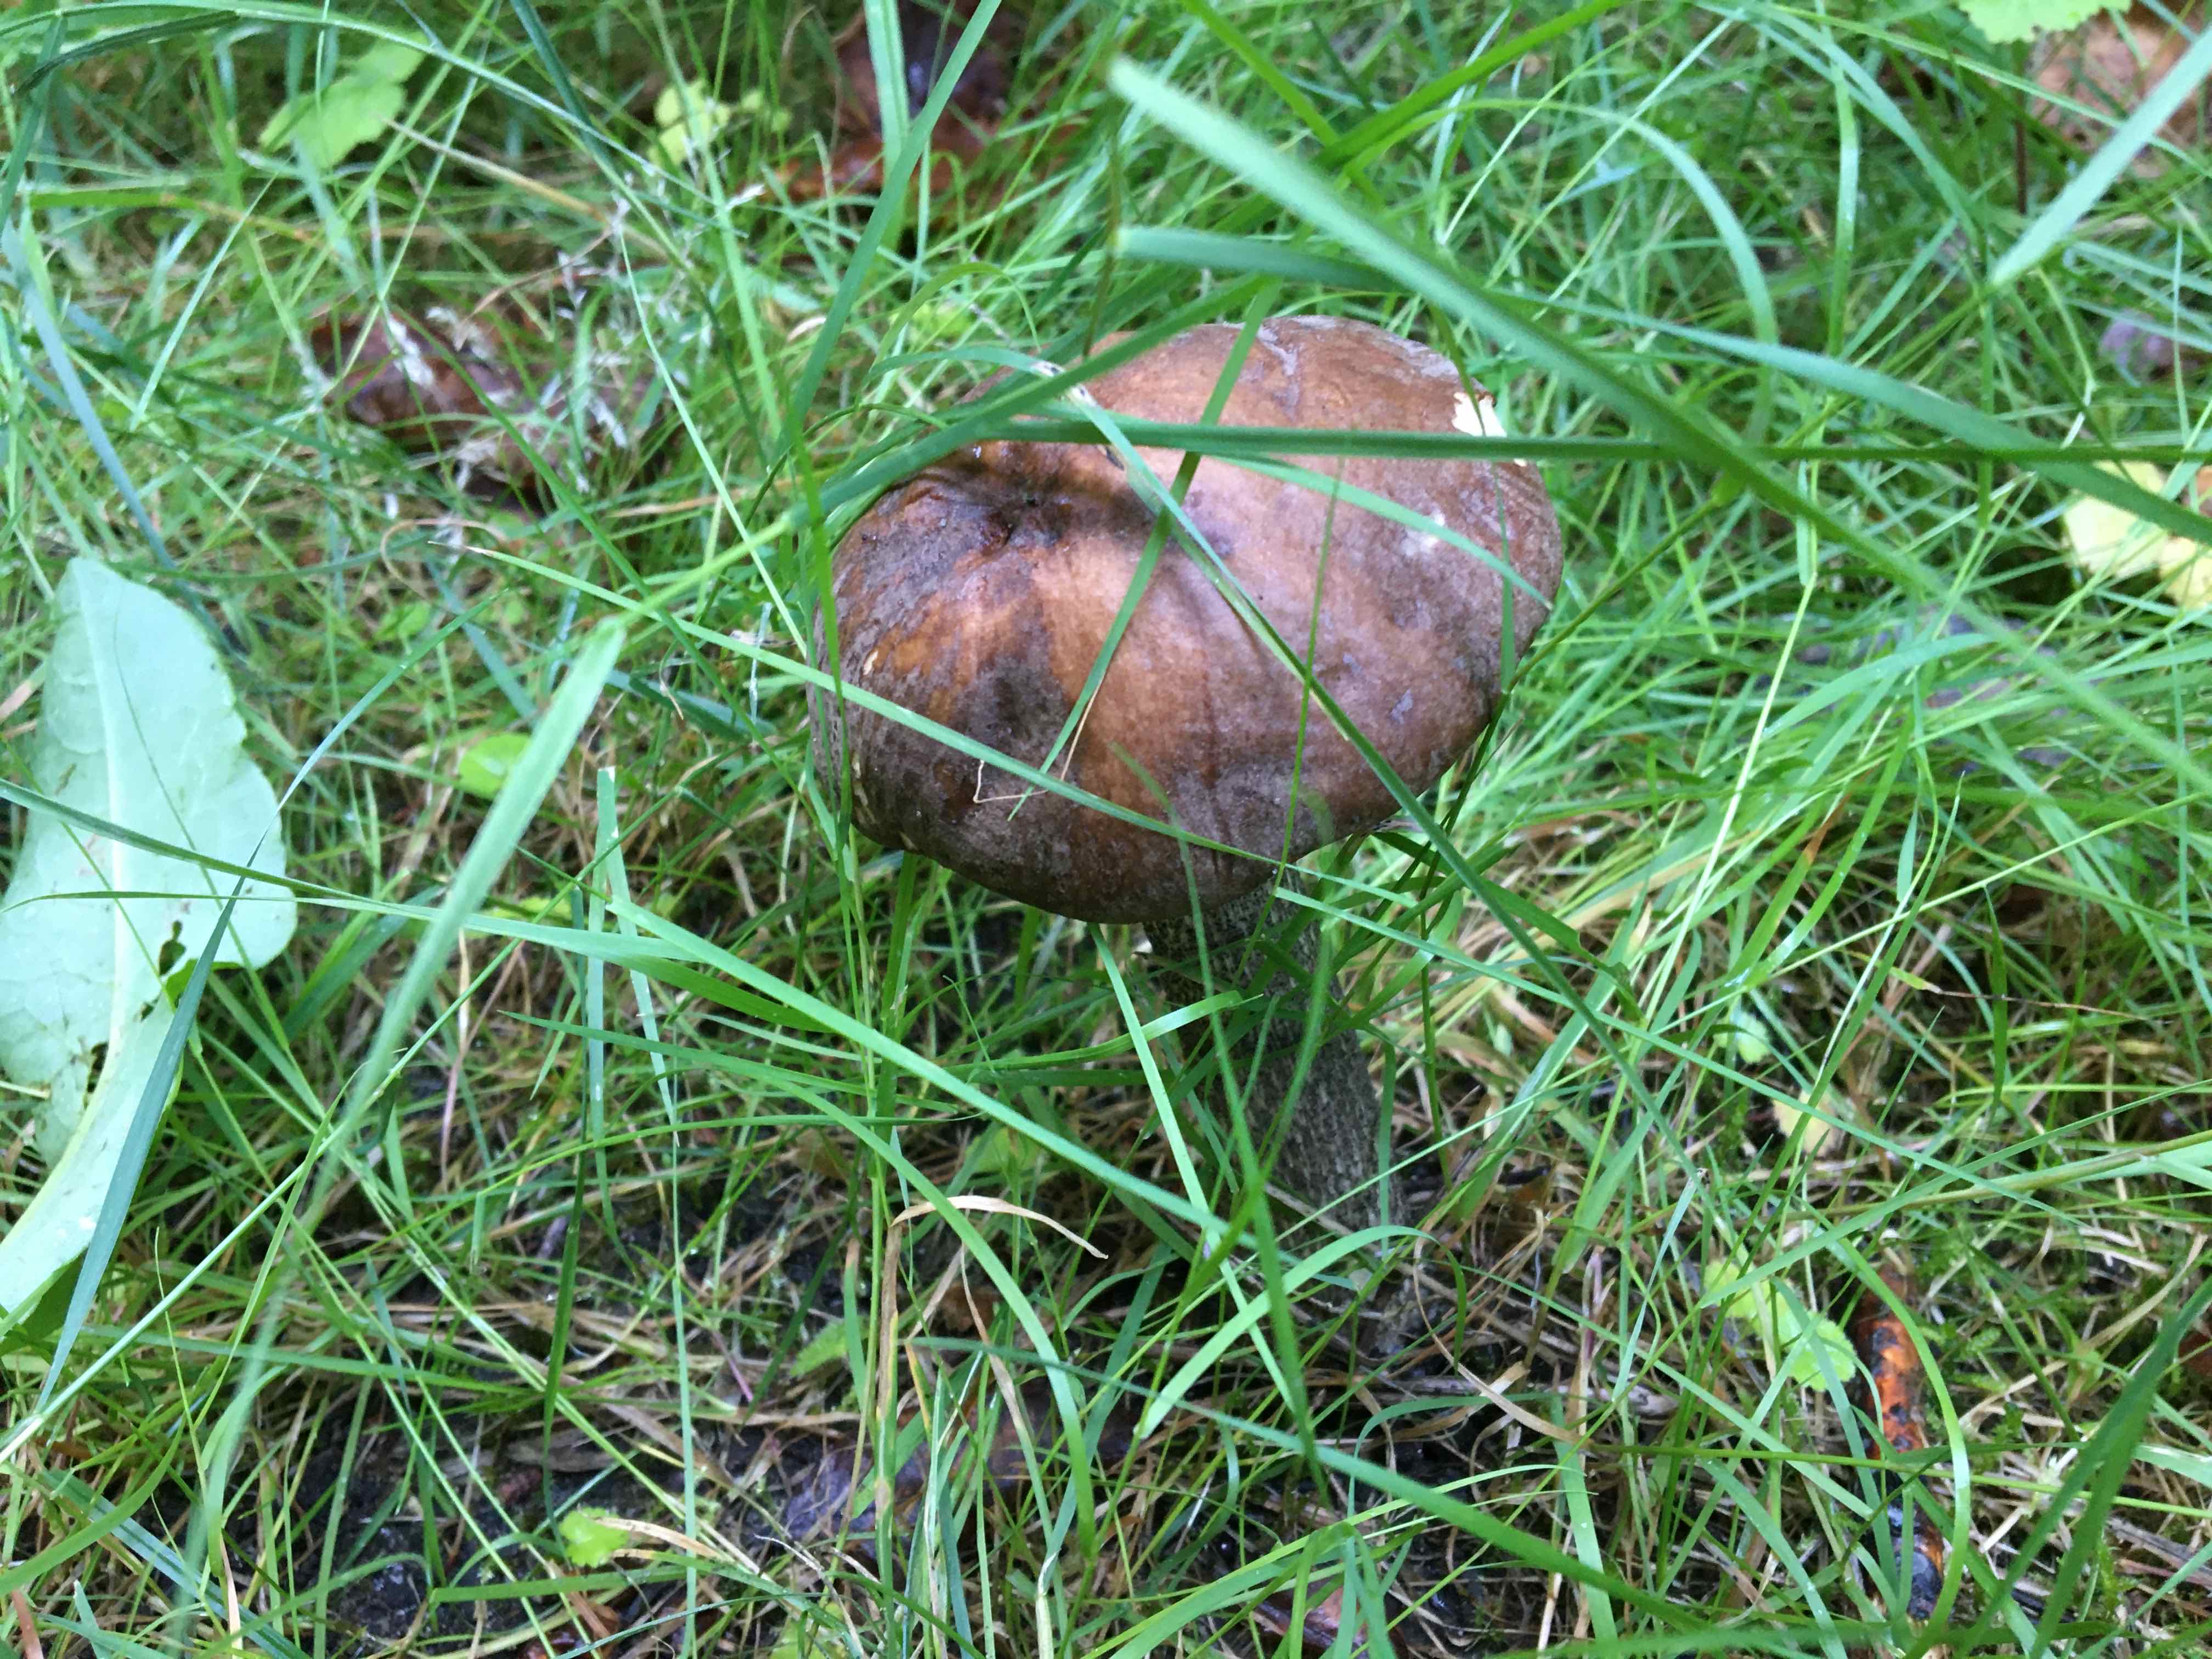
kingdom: Fungi
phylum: Basidiomycota
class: Agaricomycetes
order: Boletales
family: Boletaceae
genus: Leccinum
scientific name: Leccinum scabrum
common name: brun skælrørhat
